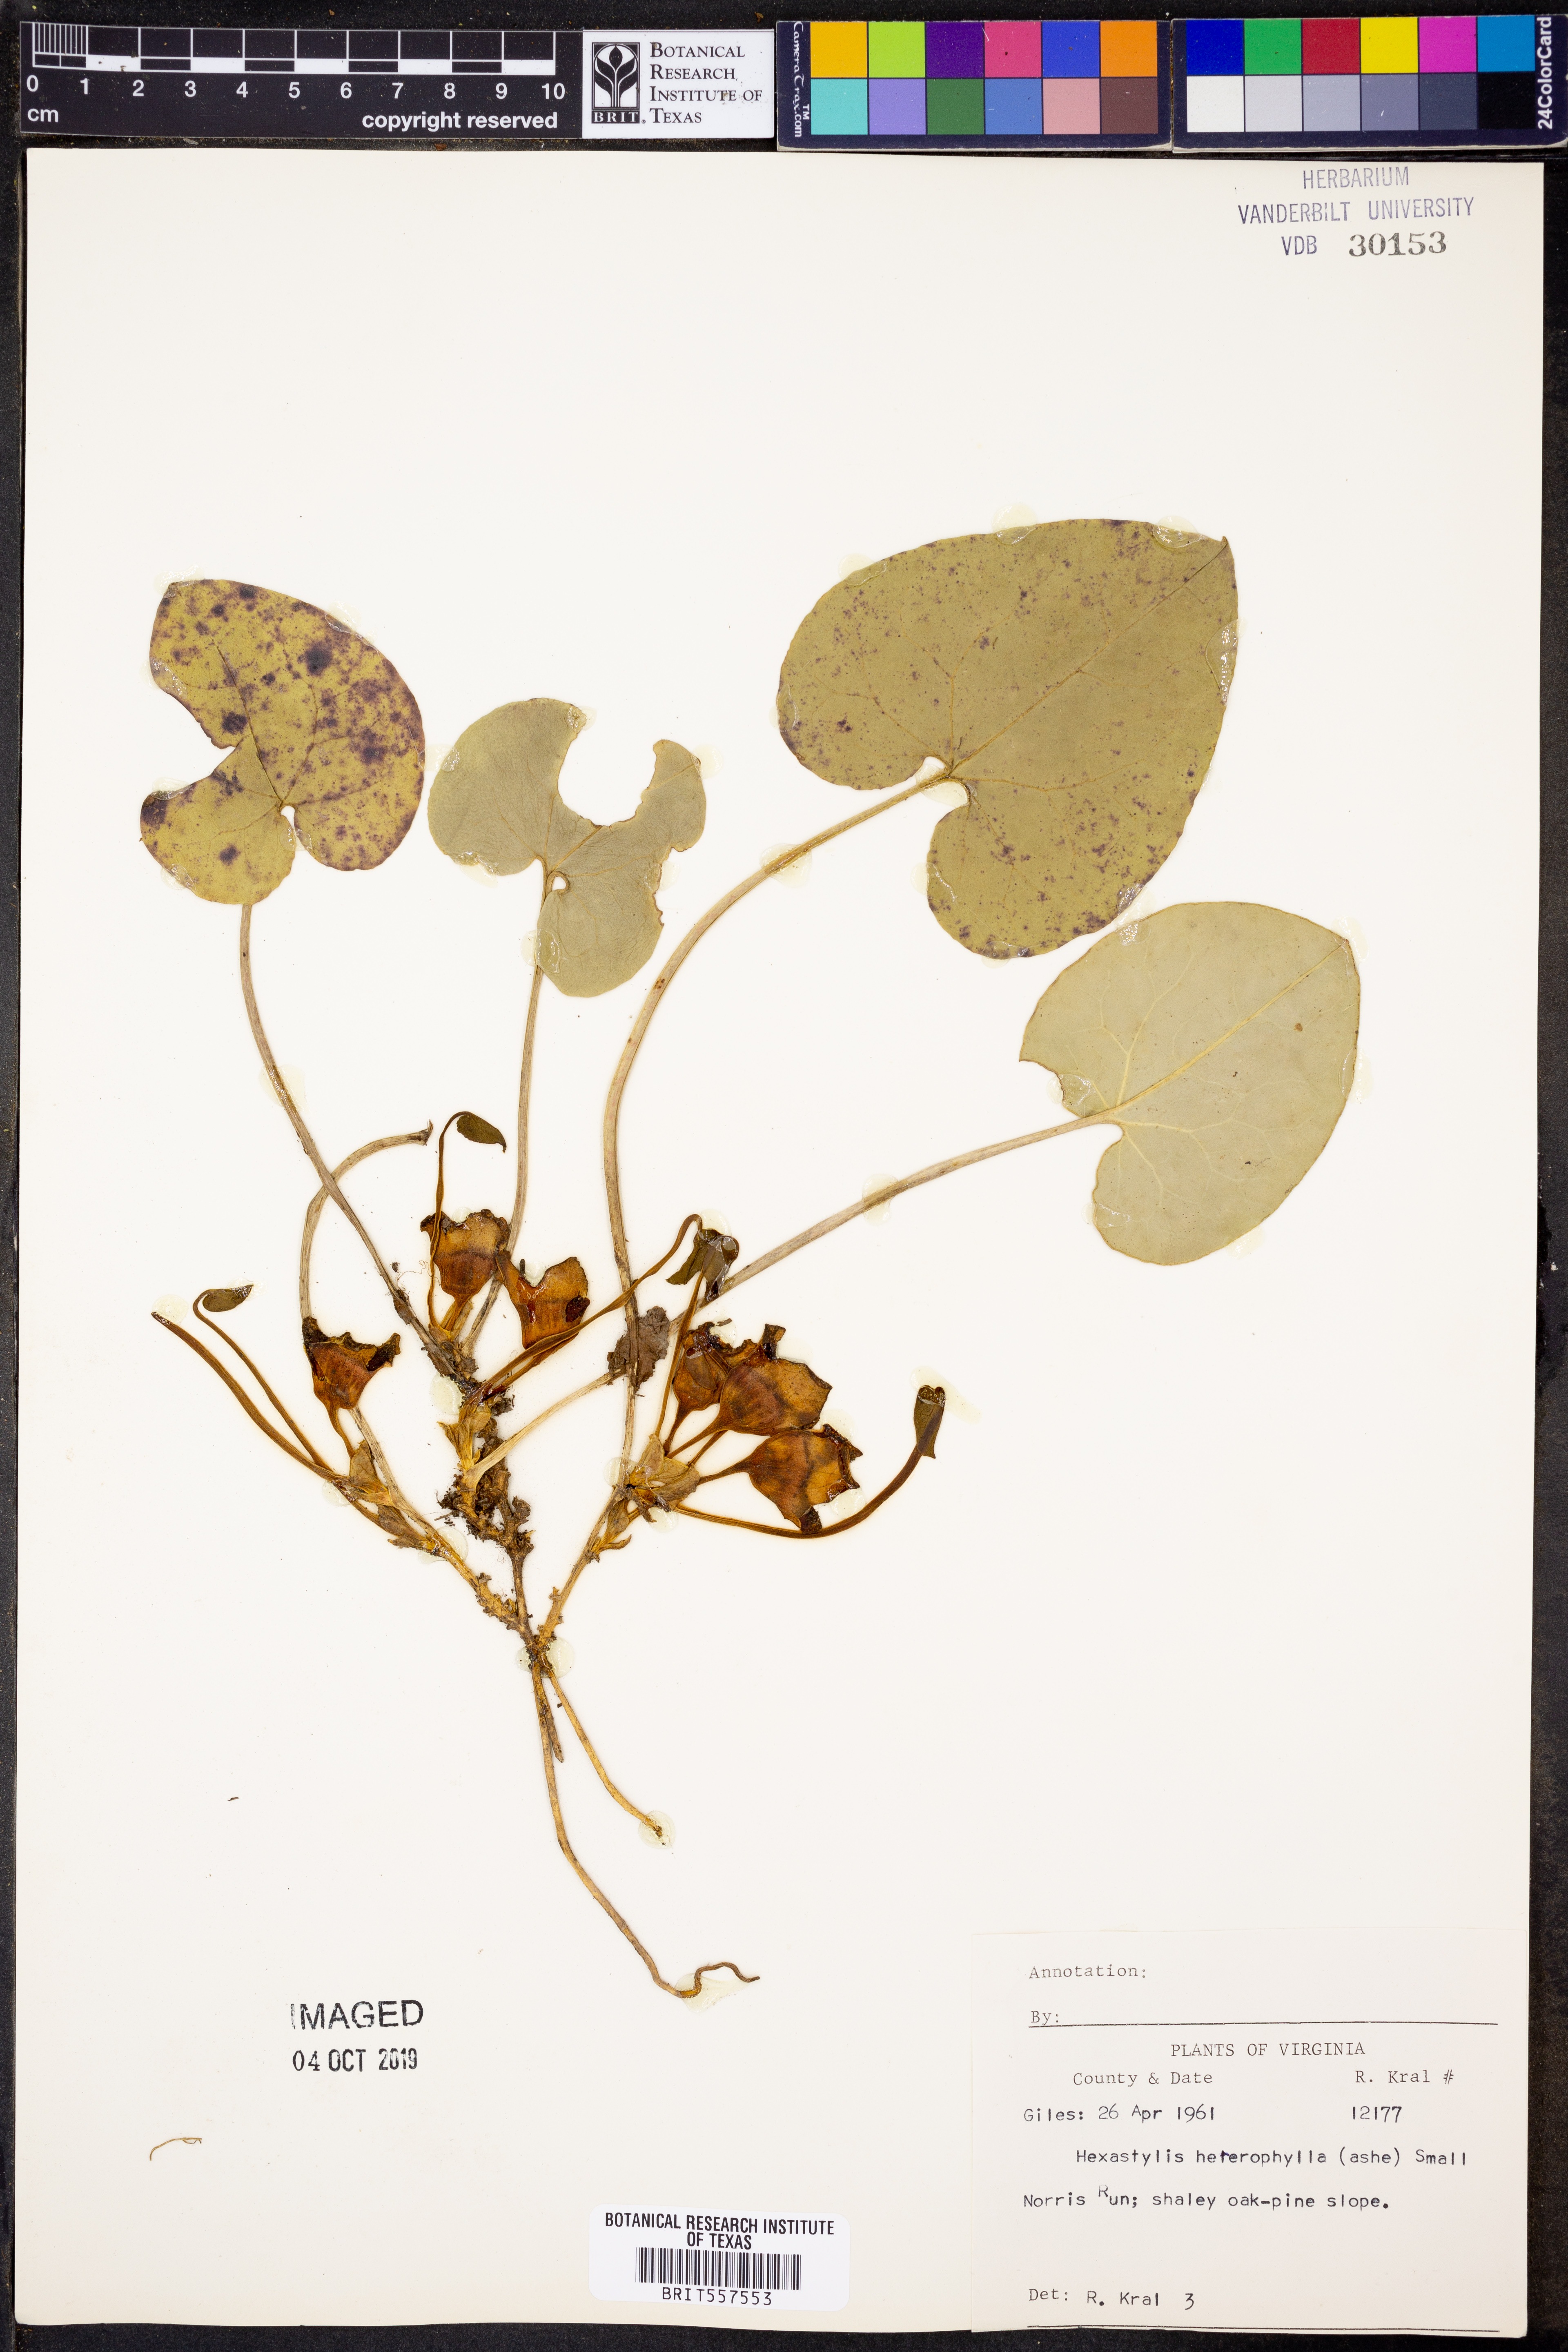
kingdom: Plantae
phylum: Tracheophyta
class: Magnoliopsida
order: Piperales
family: Aristolochiaceae
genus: Hexastylis
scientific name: Hexastylis heterophylla
